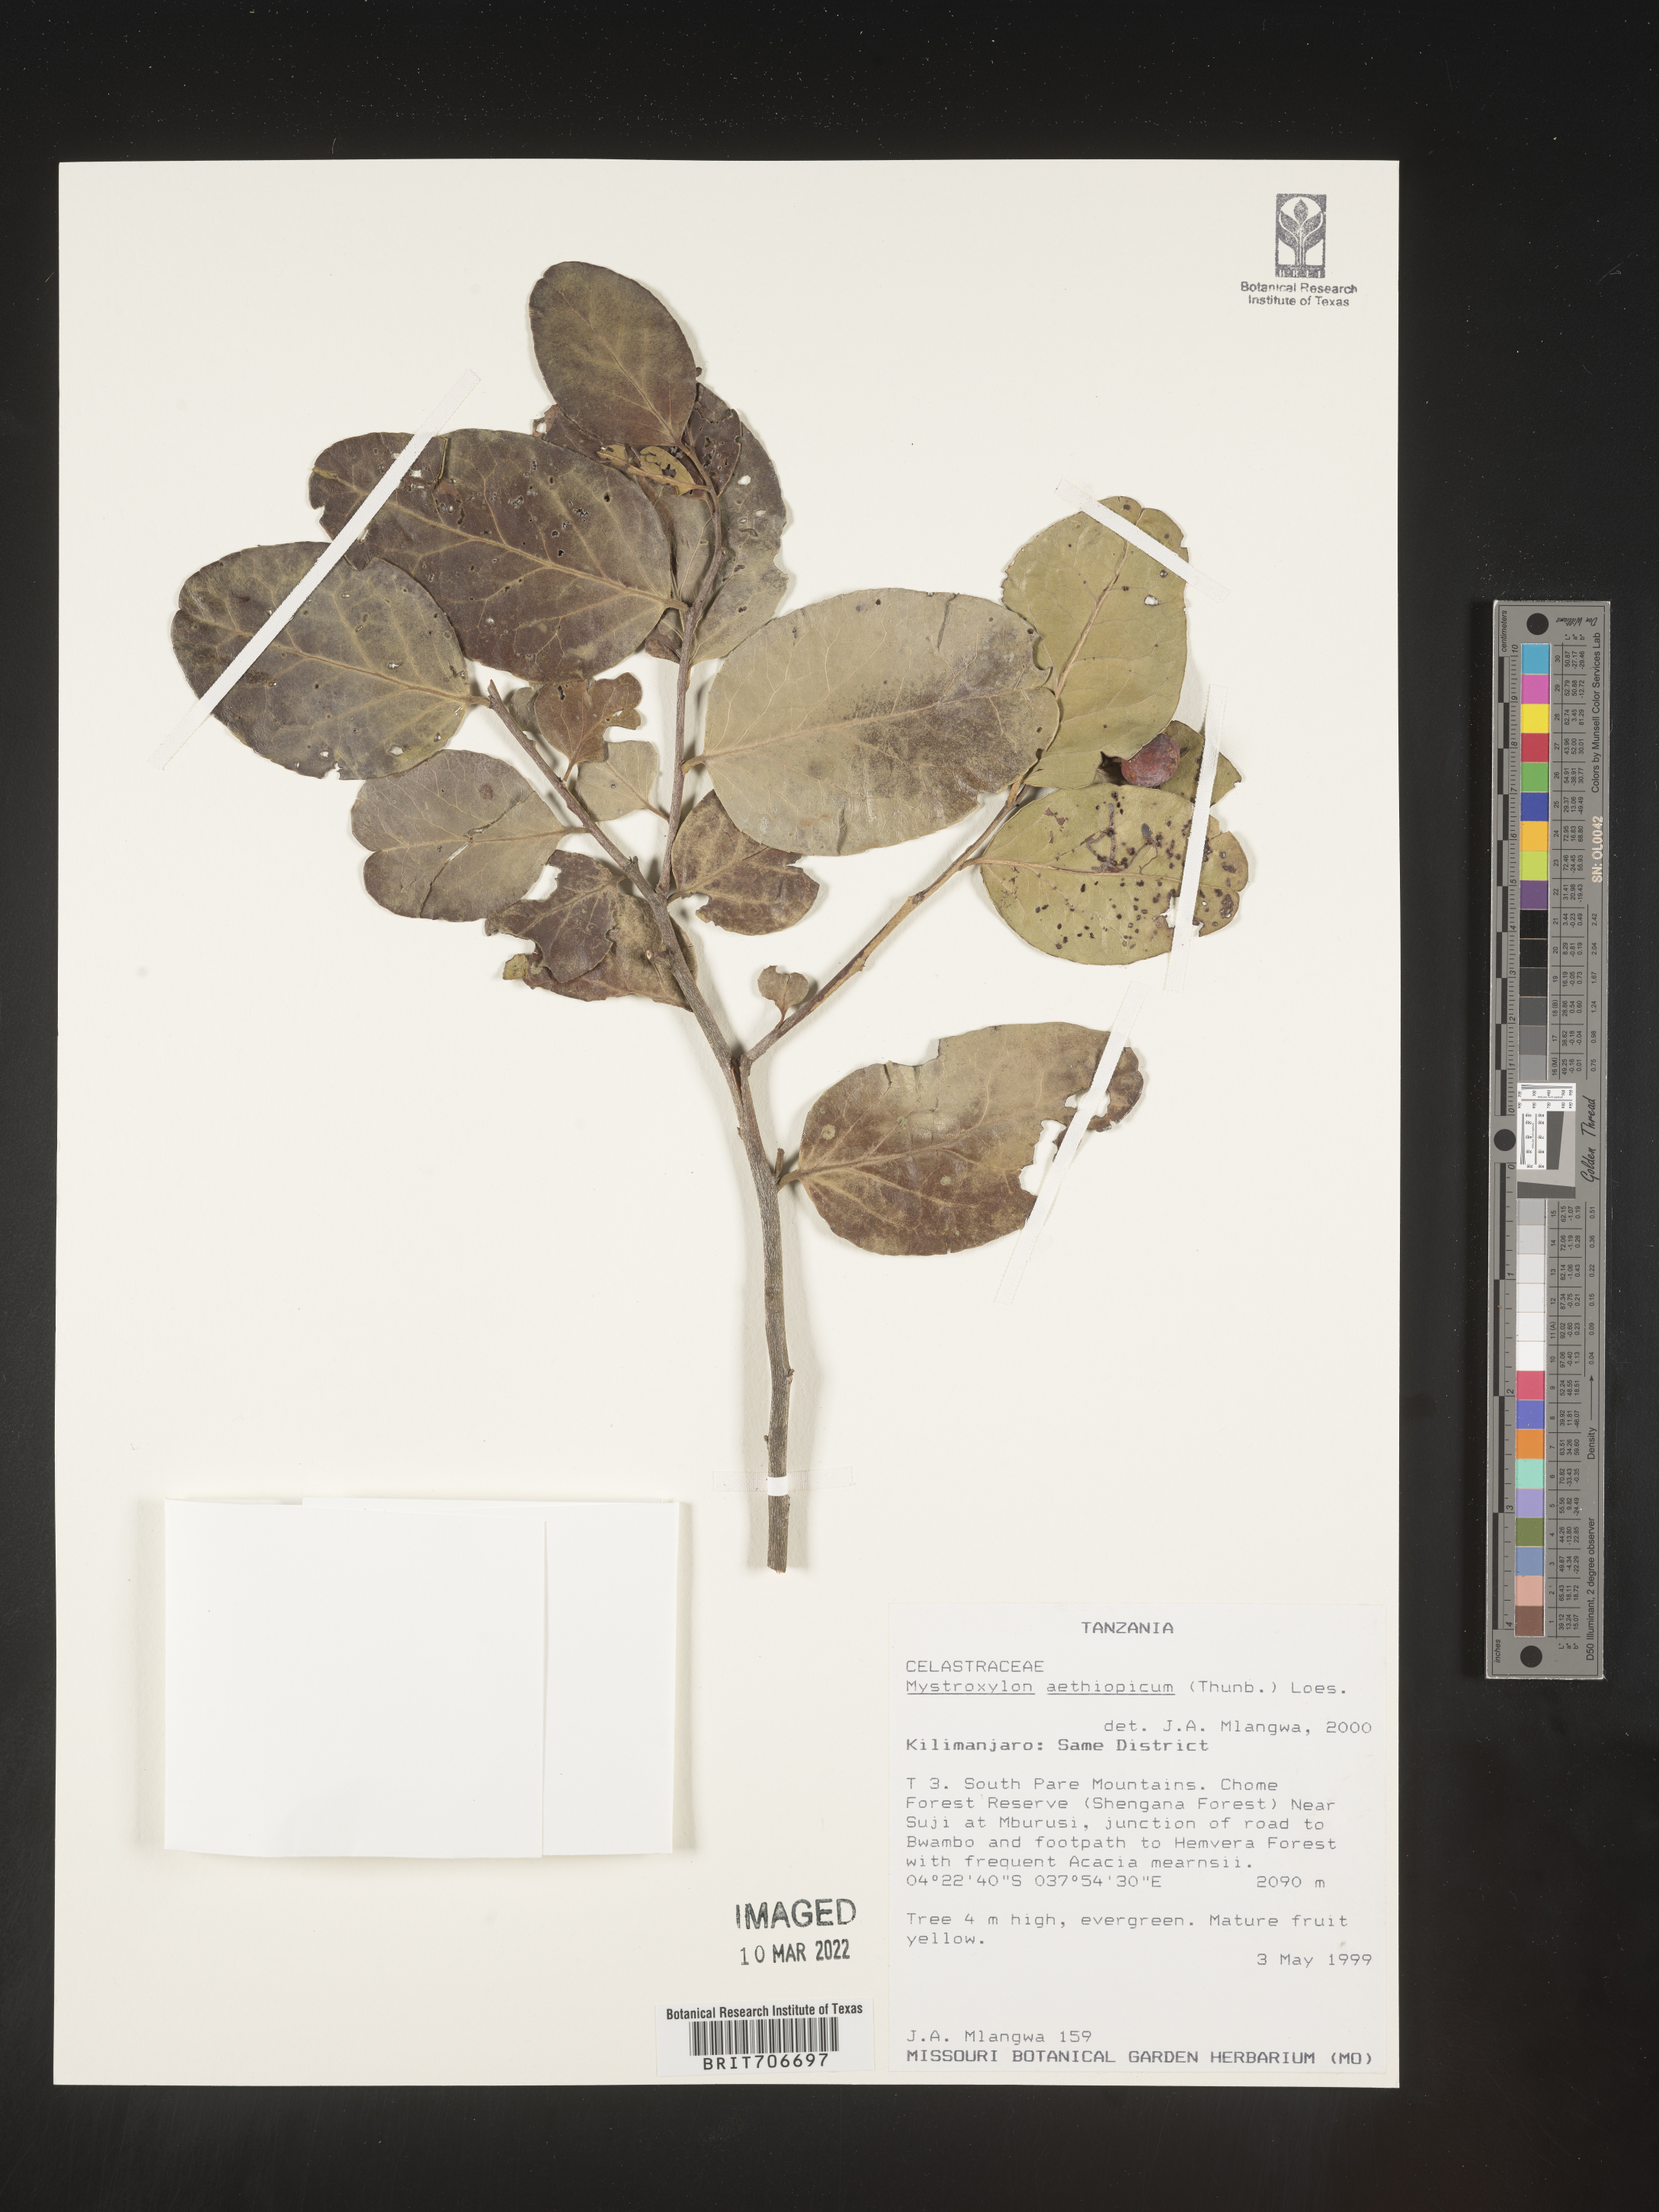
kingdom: Plantae
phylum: Tracheophyta
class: Magnoliopsida
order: Celastrales
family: Celastraceae
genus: Mystroxylon
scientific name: Mystroxylon
